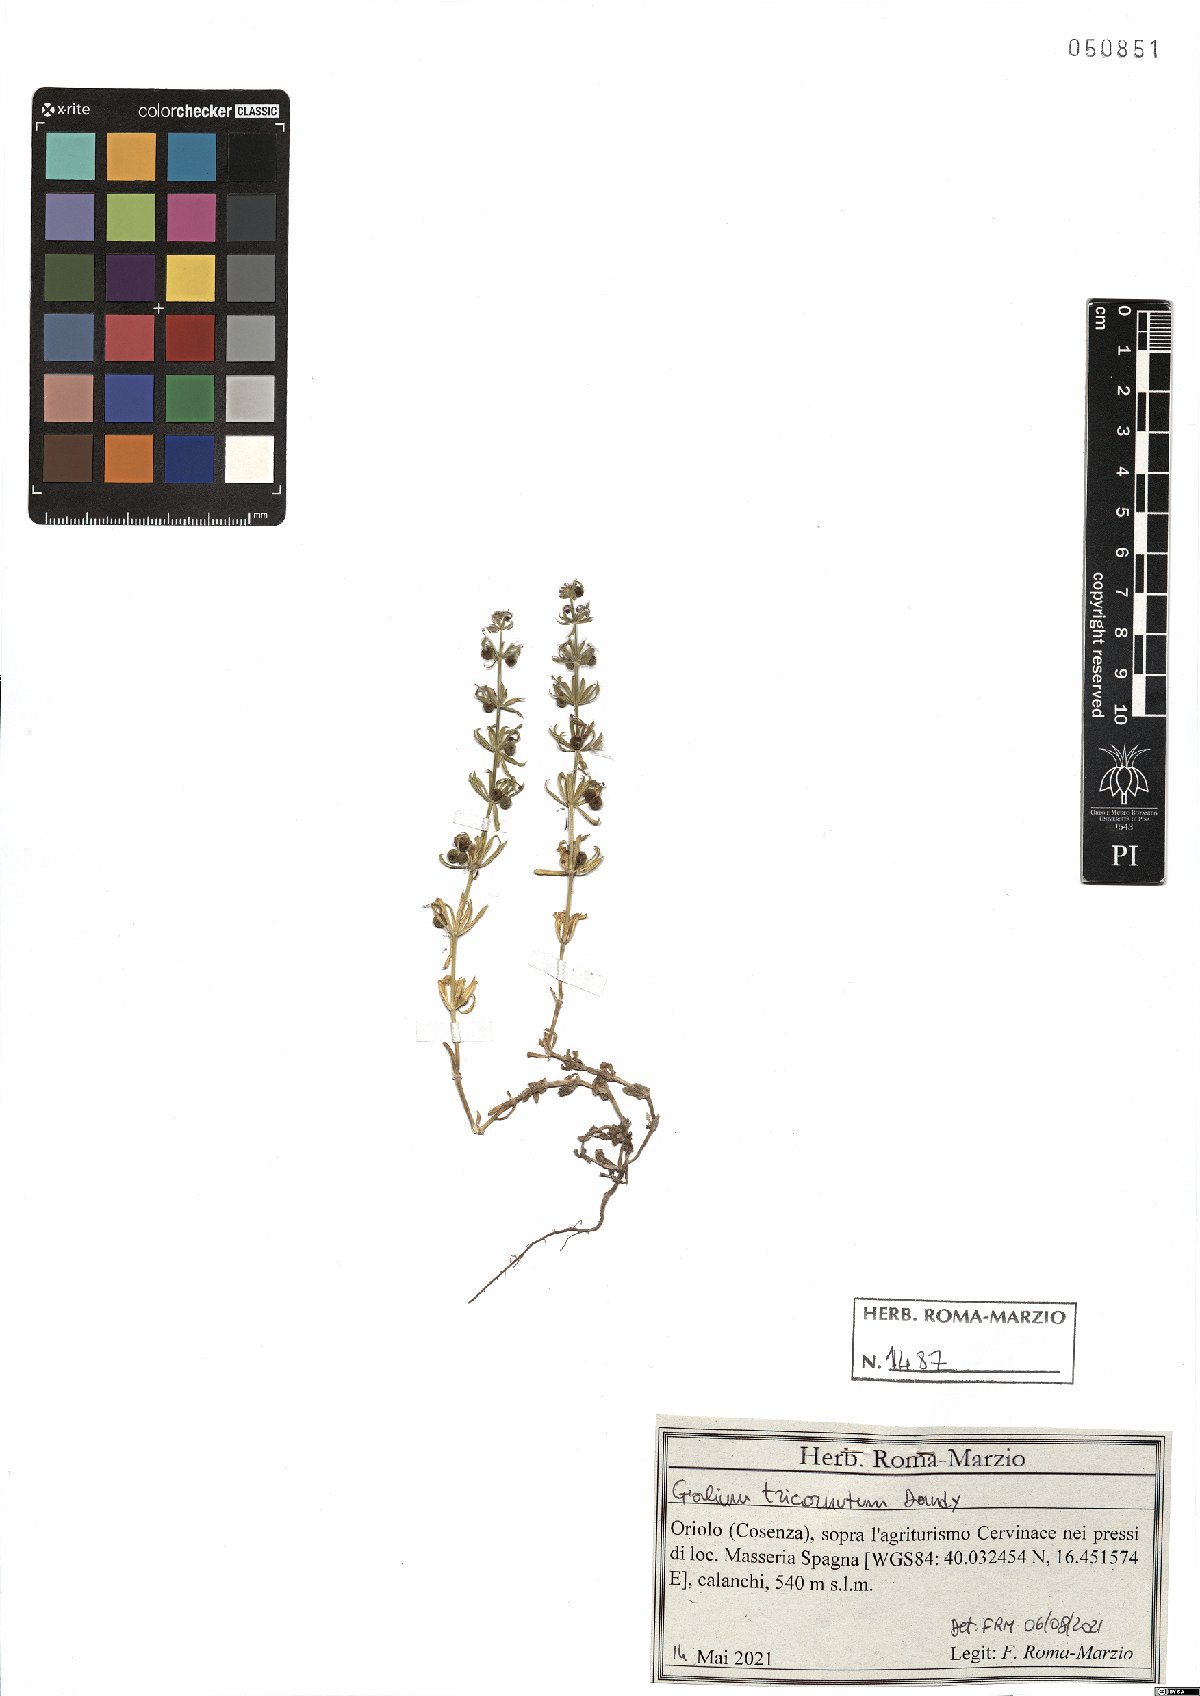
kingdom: Plantae
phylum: Tracheophyta
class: Magnoliopsida
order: Gentianales
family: Rubiaceae
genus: Galium
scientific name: Galium tricornutum
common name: Corn cleavers
